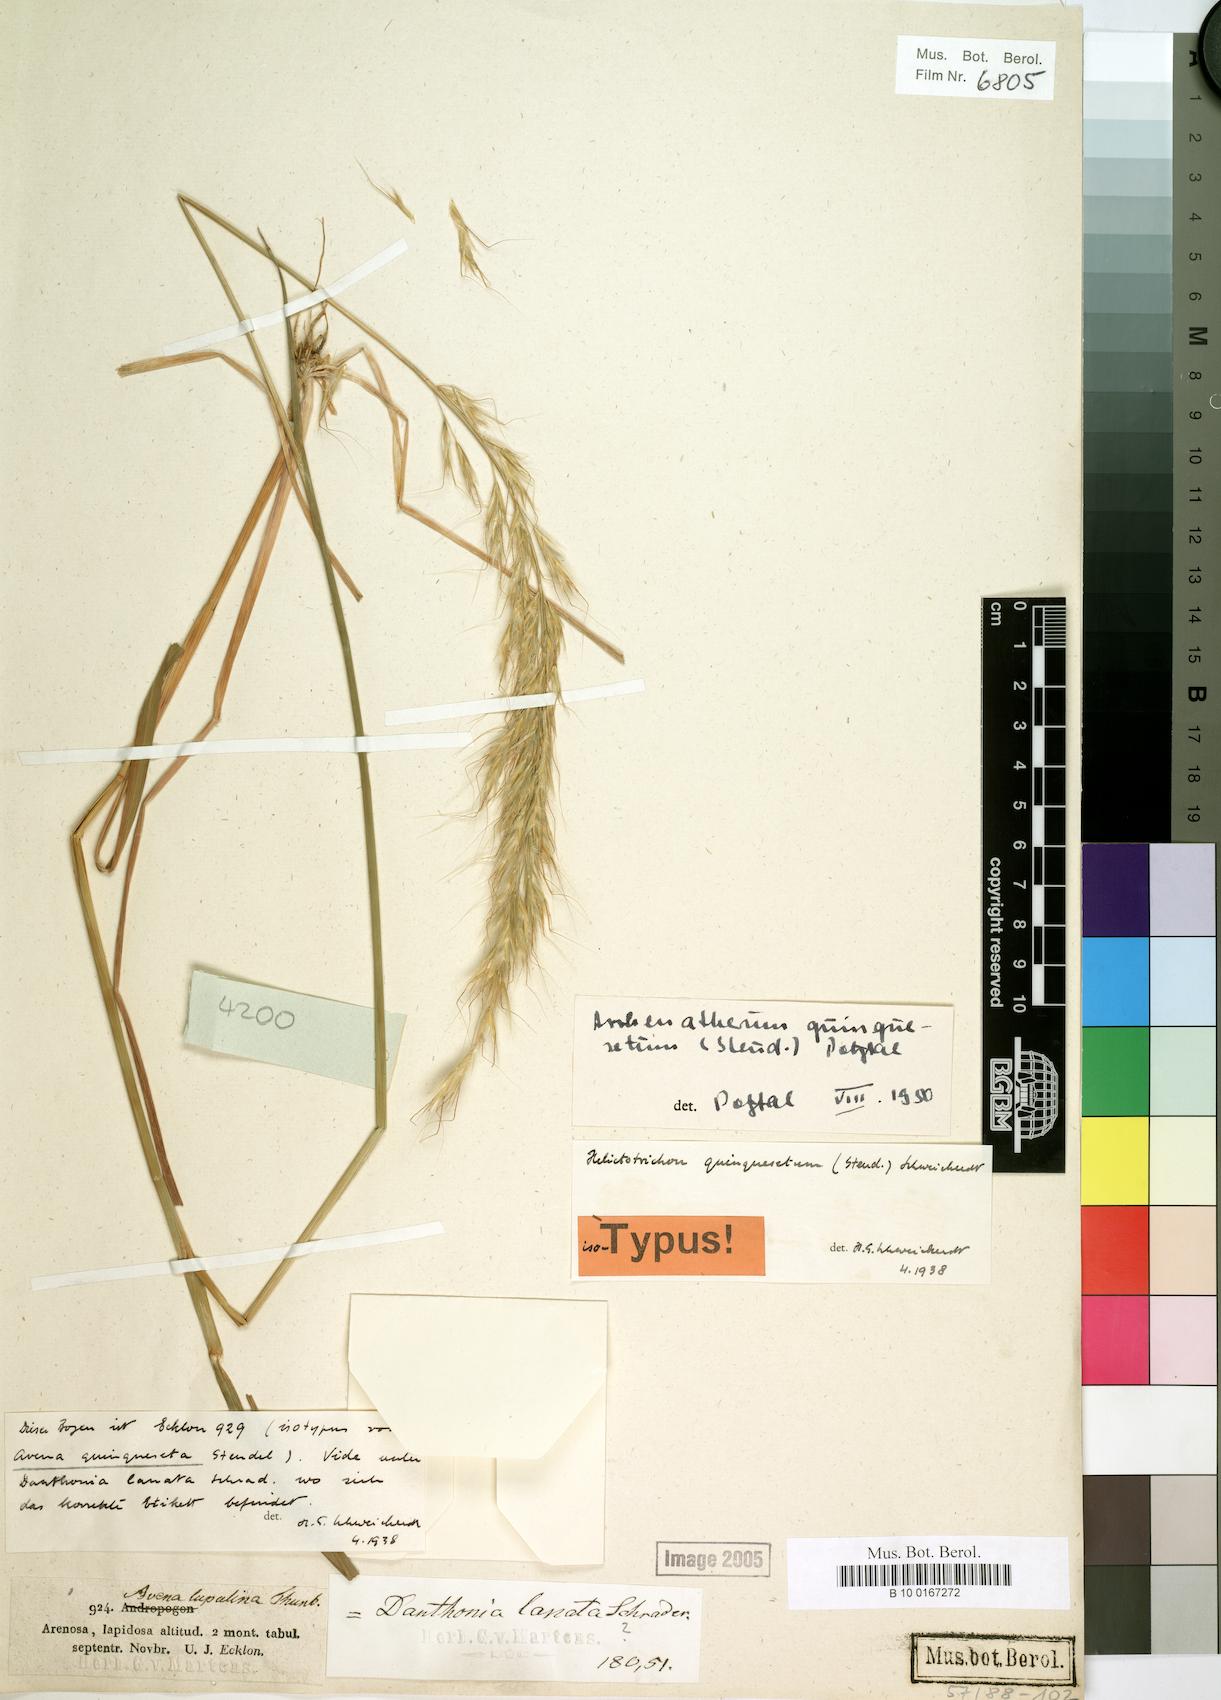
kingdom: Plantae
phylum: Tracheophyta
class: Liliopsida
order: Poales
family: Poaceae
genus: Trisetopsis
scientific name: Trisetopsis quinqueseta
